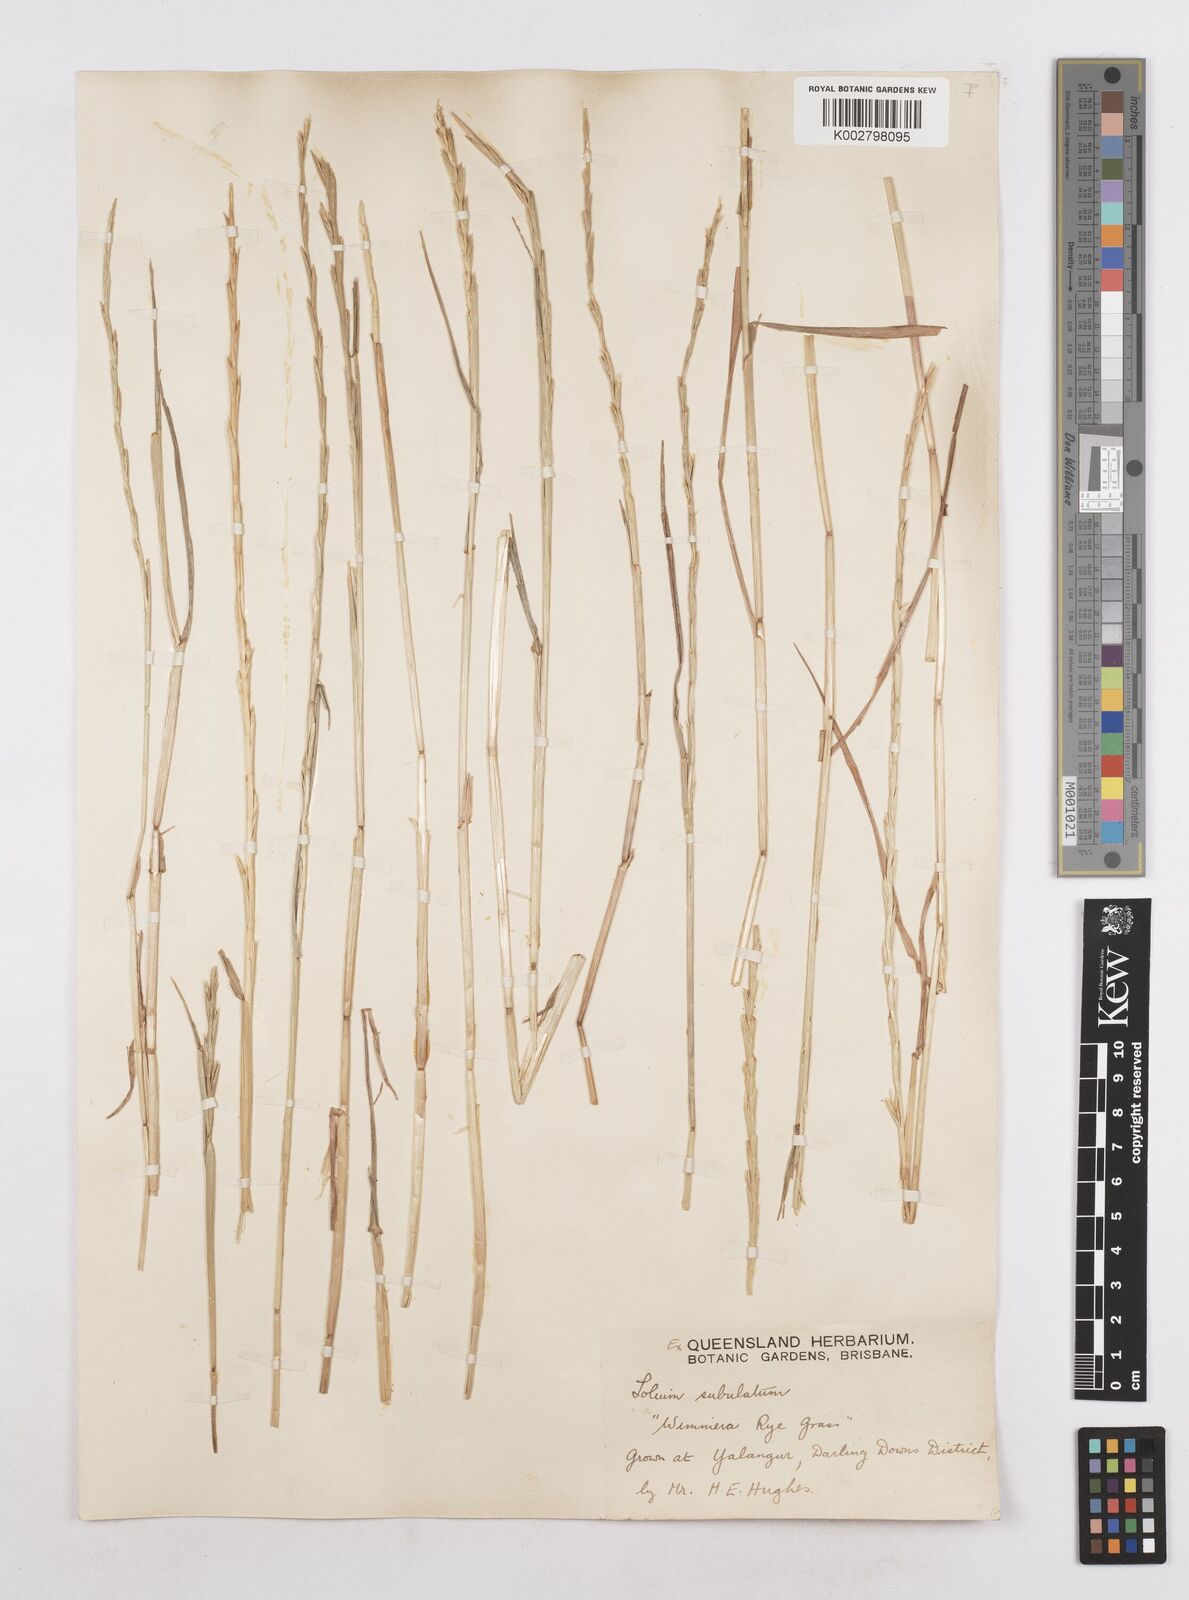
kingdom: Plantae
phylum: Tracheophyta
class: Liliopsida
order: Poales
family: Poaceae
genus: Lolium
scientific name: Lolium
